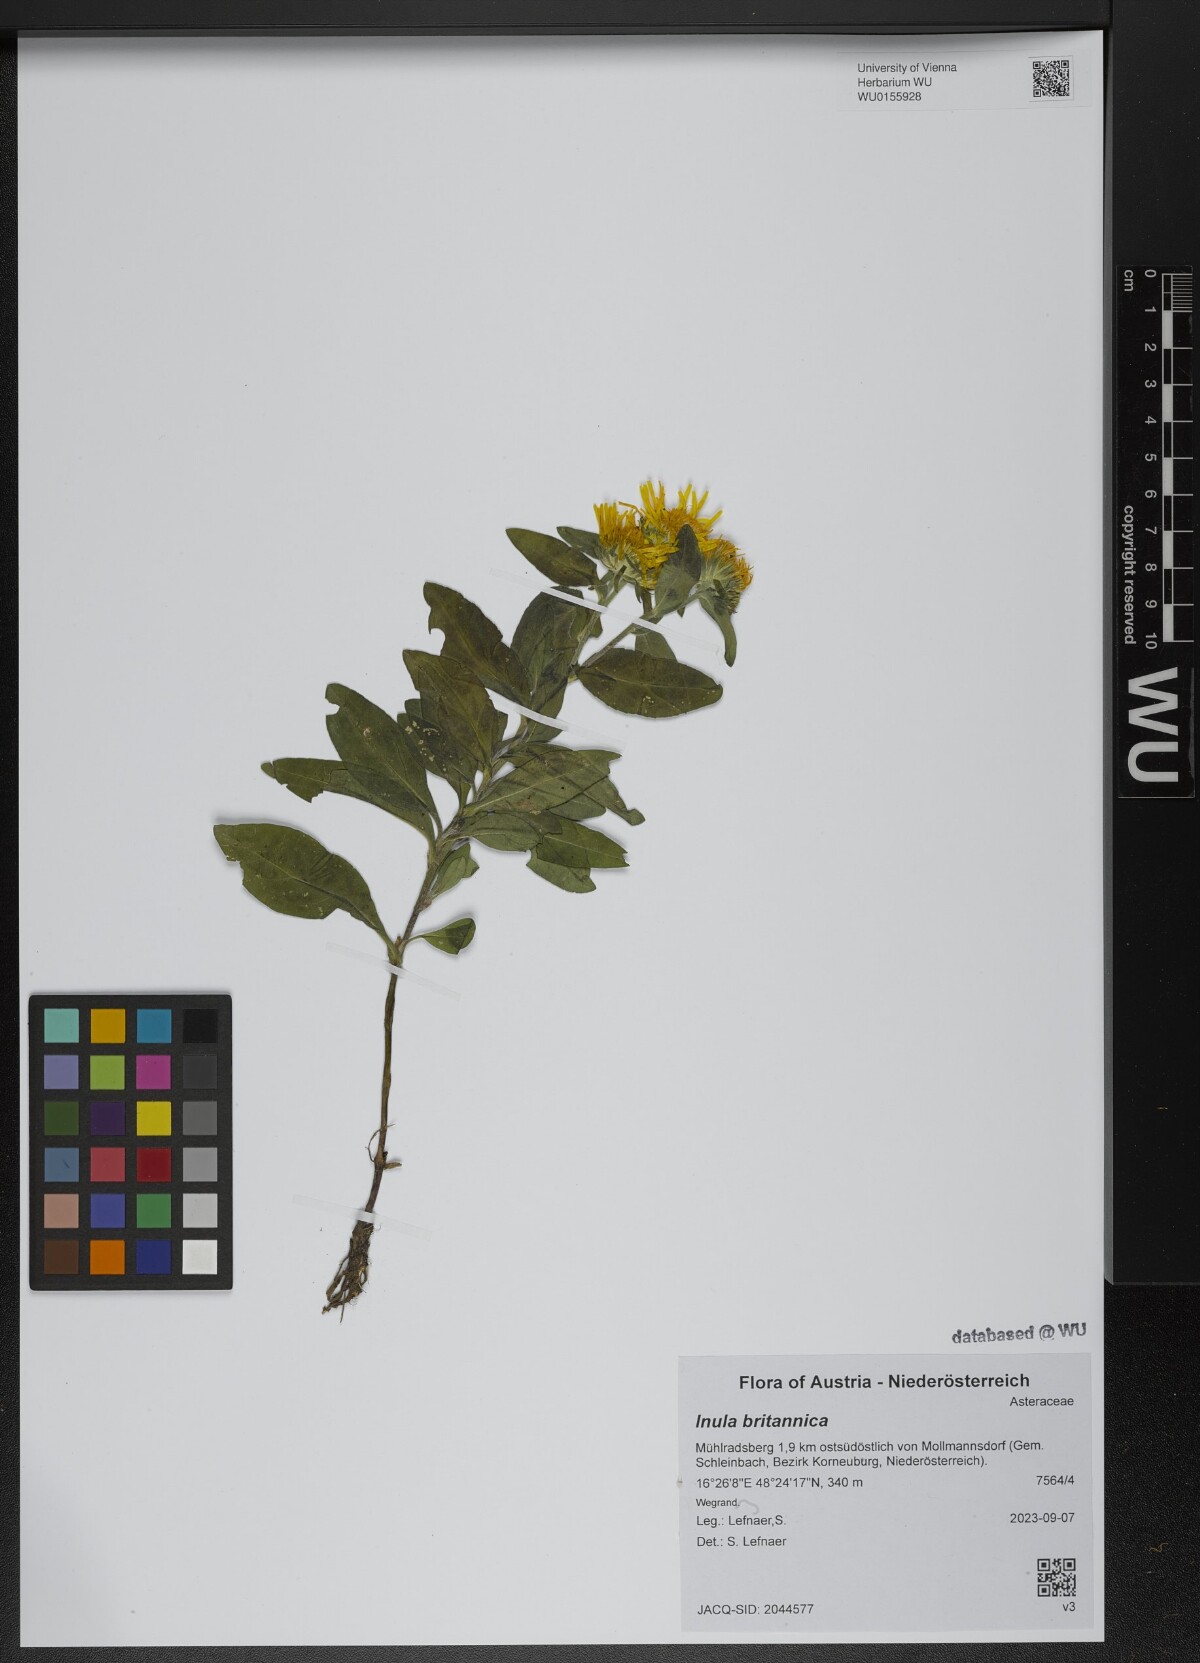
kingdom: Plantae
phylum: Tracheophyta
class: Magnoliopsida
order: Asterales
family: Asteraceae
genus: Pentanema
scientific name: Pentanema britannicum
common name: British elecampane
